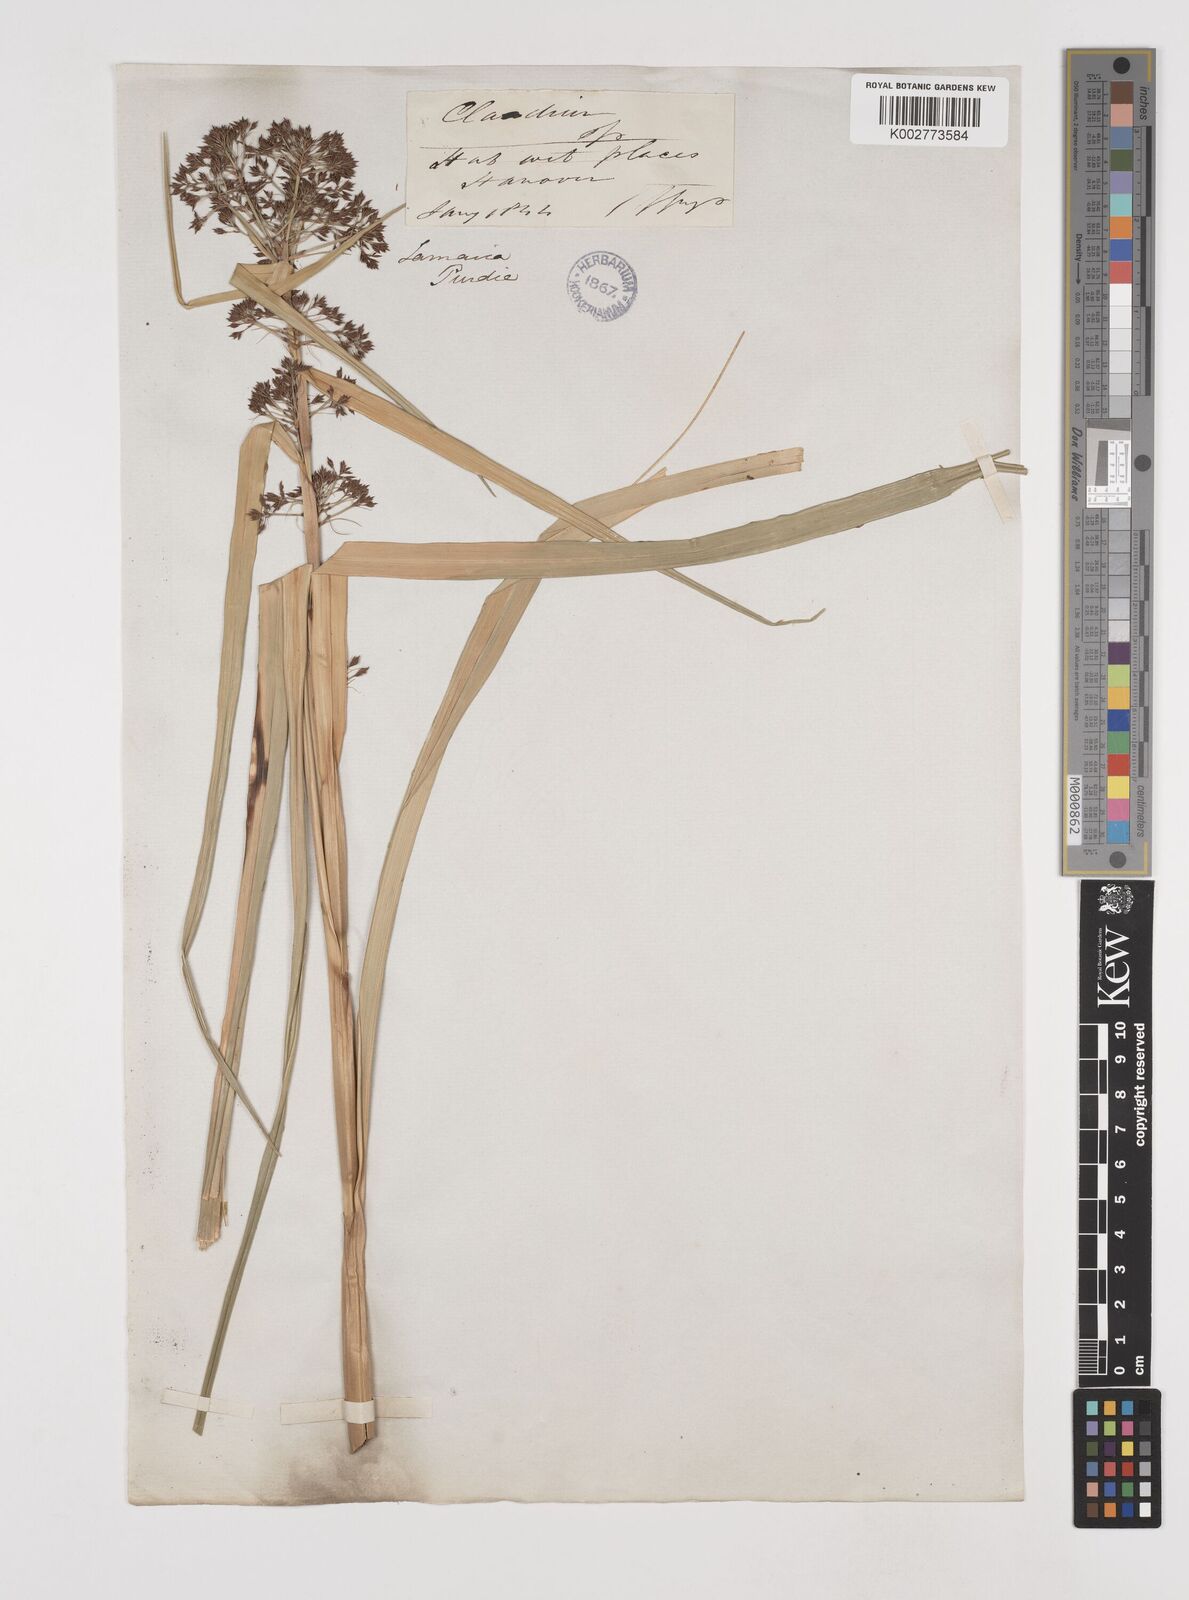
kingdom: Plantae
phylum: Tracheophyta
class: Liliopsida
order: Poales
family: Cyperaceae
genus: Rhynchospora
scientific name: Rhynchospora corymbosa
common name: Golden beak sedge
